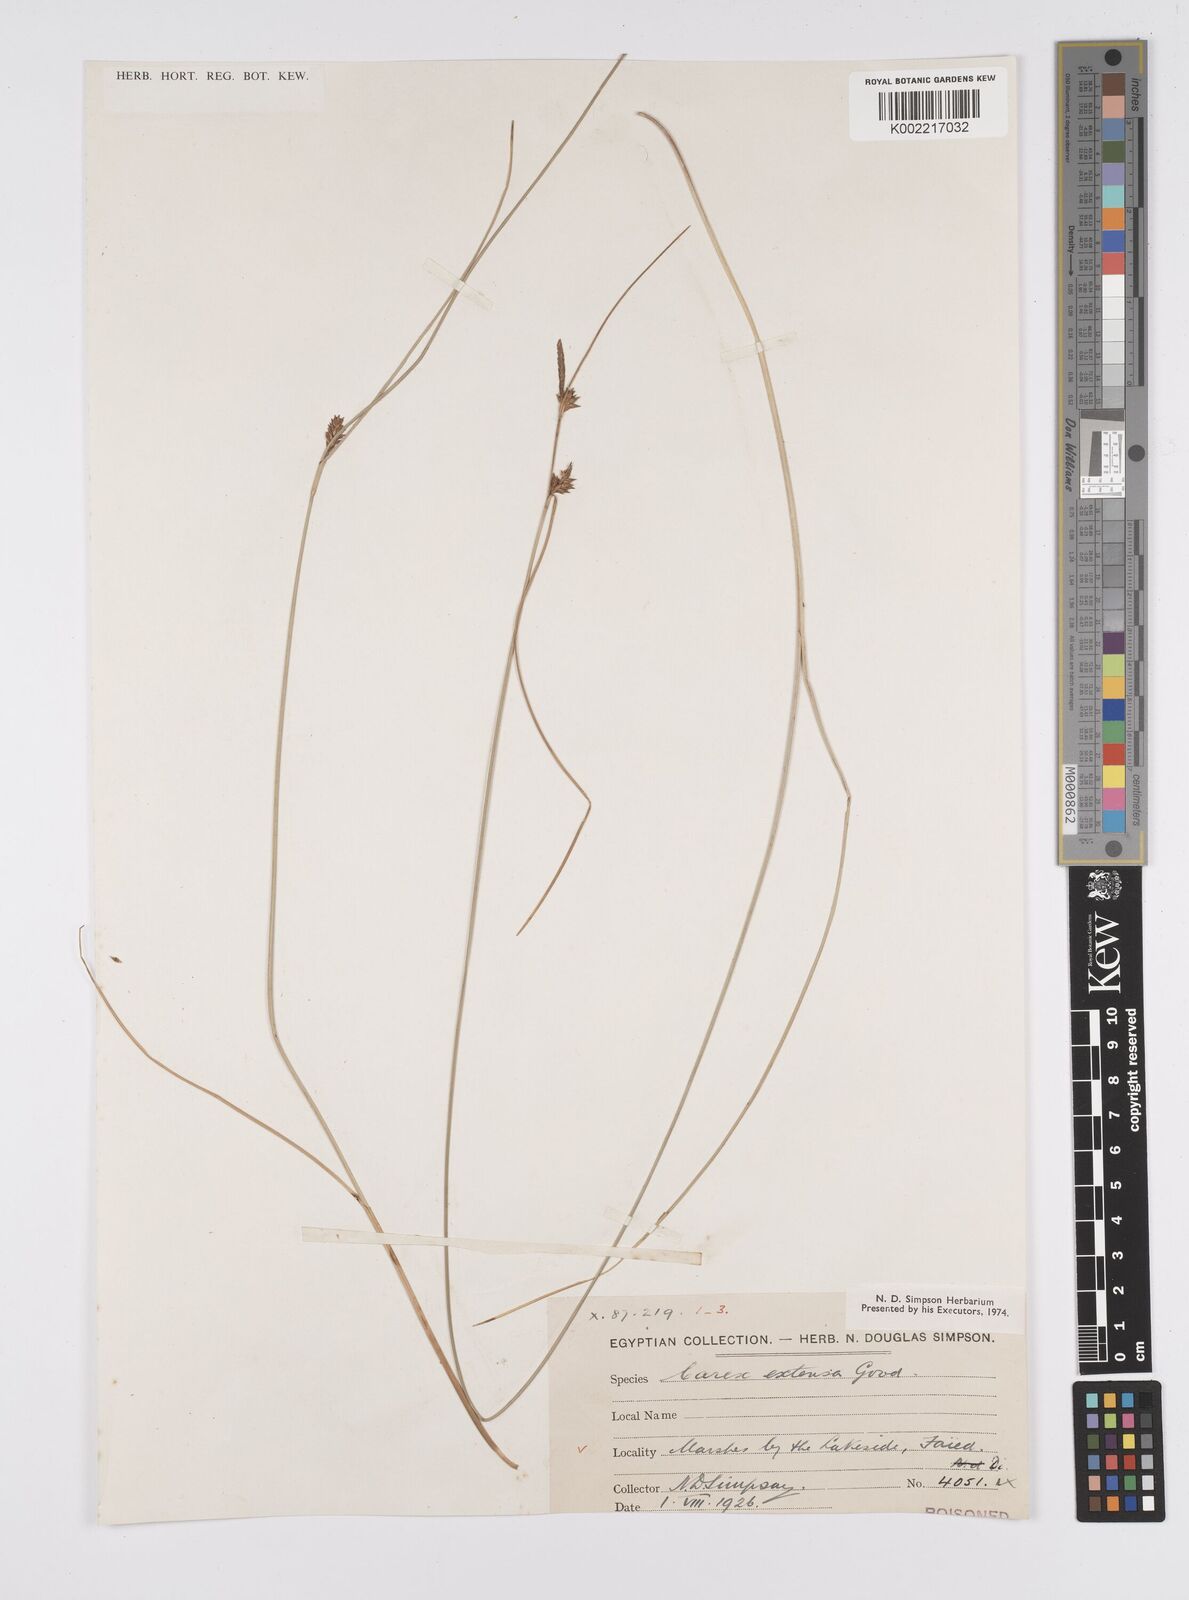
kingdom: Plantae
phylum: Tracheophyta
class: Liliopsida
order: Poales
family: Cyperaceae
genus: Carex
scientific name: Carex extensa
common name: Long-bracted sedge
